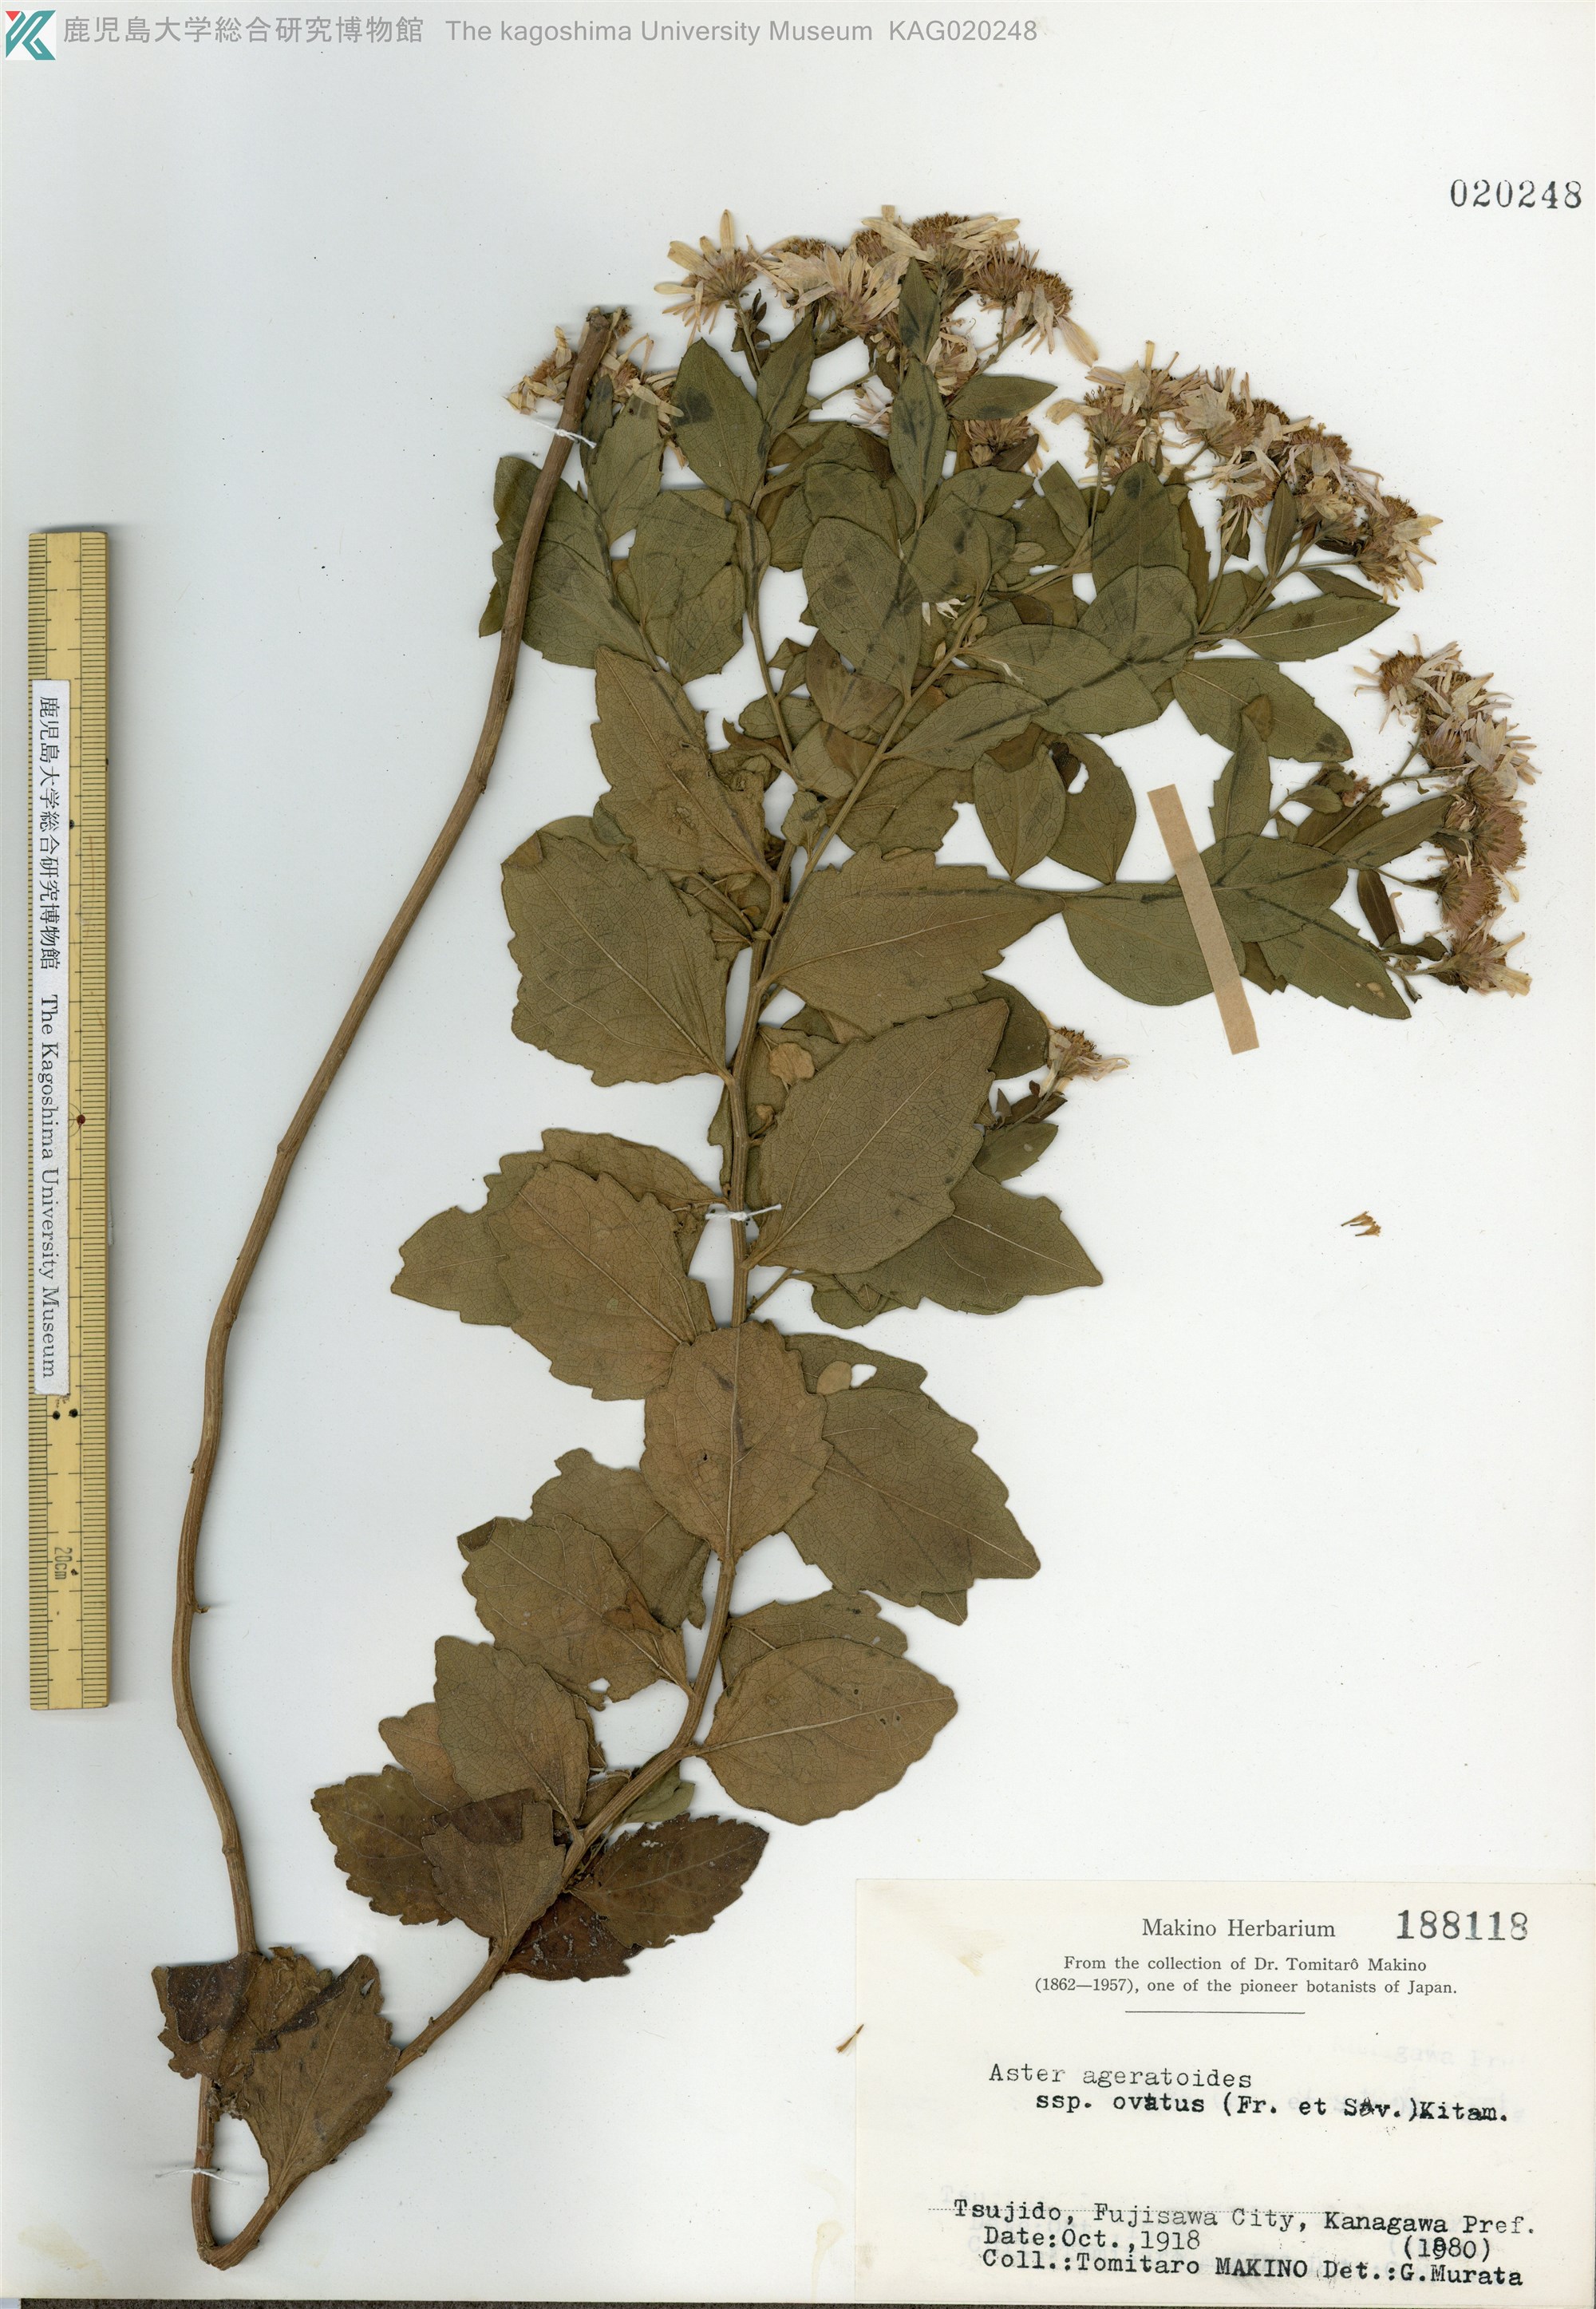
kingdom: Plantae
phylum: Tracheophyta
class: Magnoliopsida
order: Asterales
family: Asteraceae
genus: Aster
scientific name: Aster microcephalus
